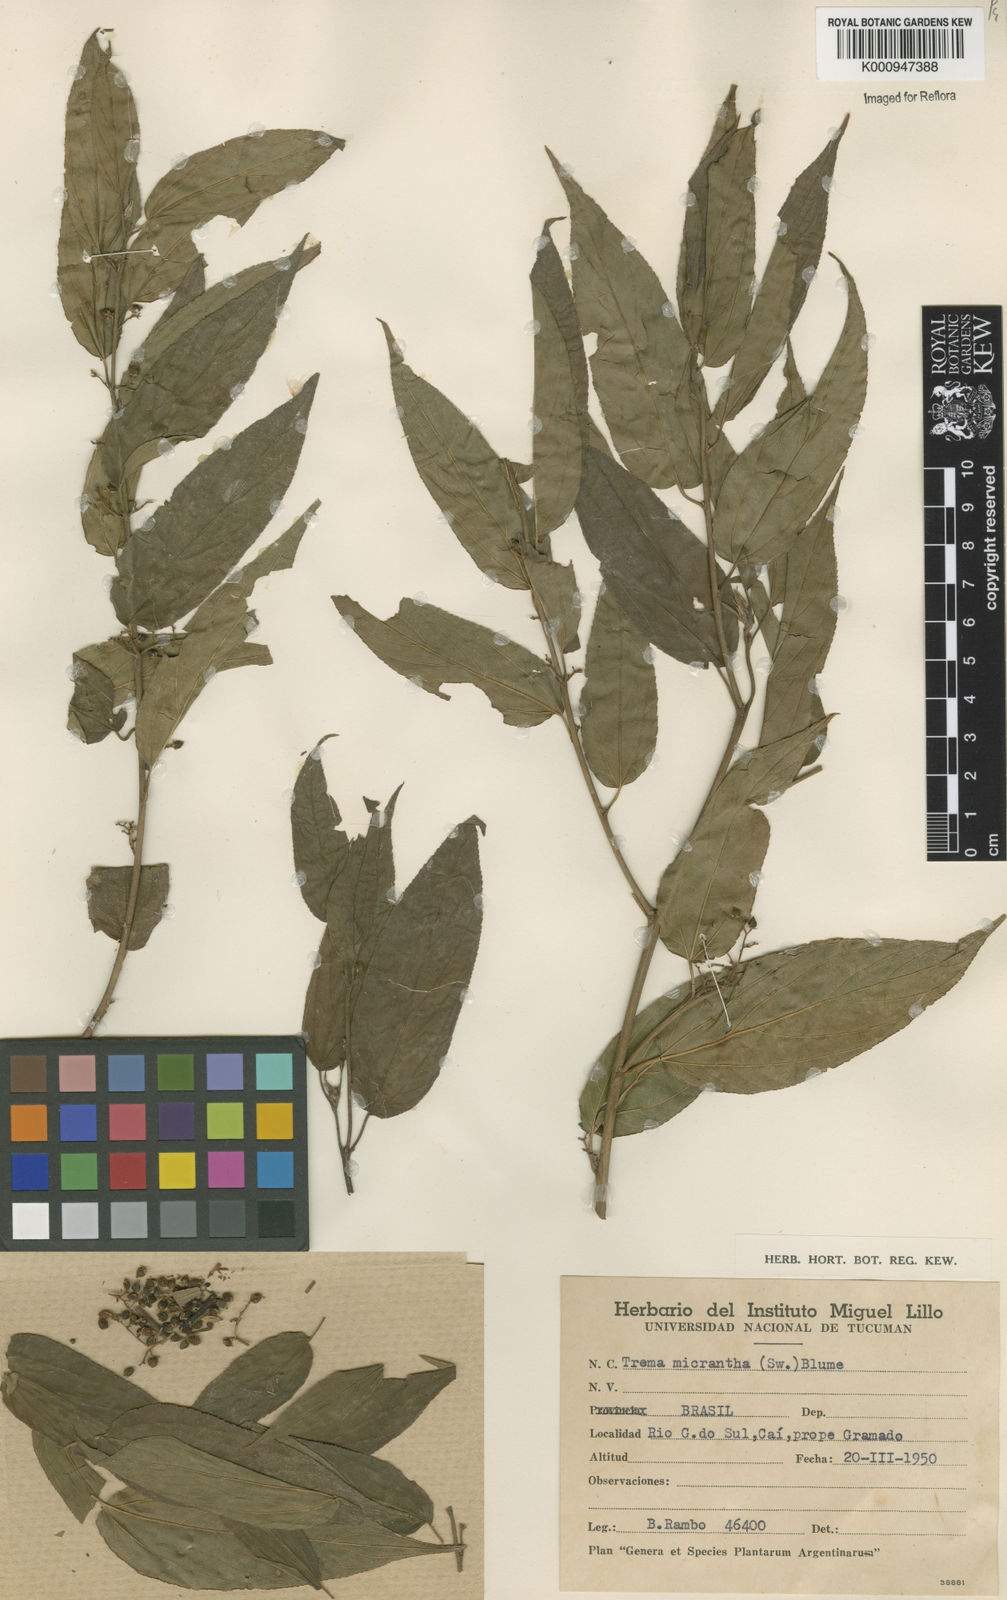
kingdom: Plantae
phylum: Tracheophyta
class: Magnoliopsida
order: Rosales
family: Cannabaceae
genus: Trema
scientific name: Trema micranthum
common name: Jamaican nettletree
